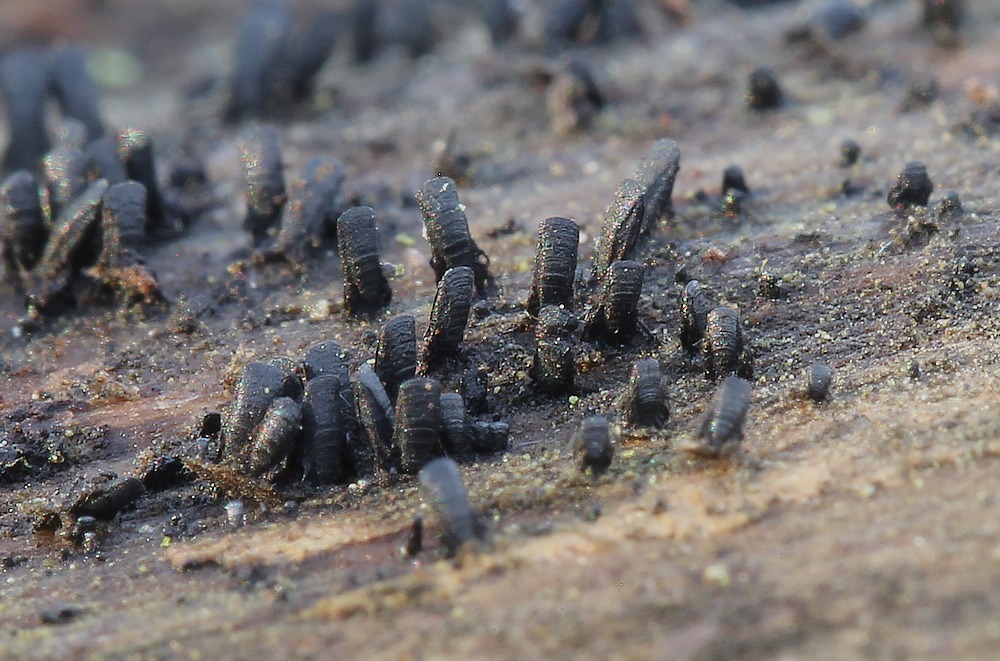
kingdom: Fungi
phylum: Ascomycota
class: Eurotiomycetes
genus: Glyphium
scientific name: Glyphium elatum
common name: kuløkse
